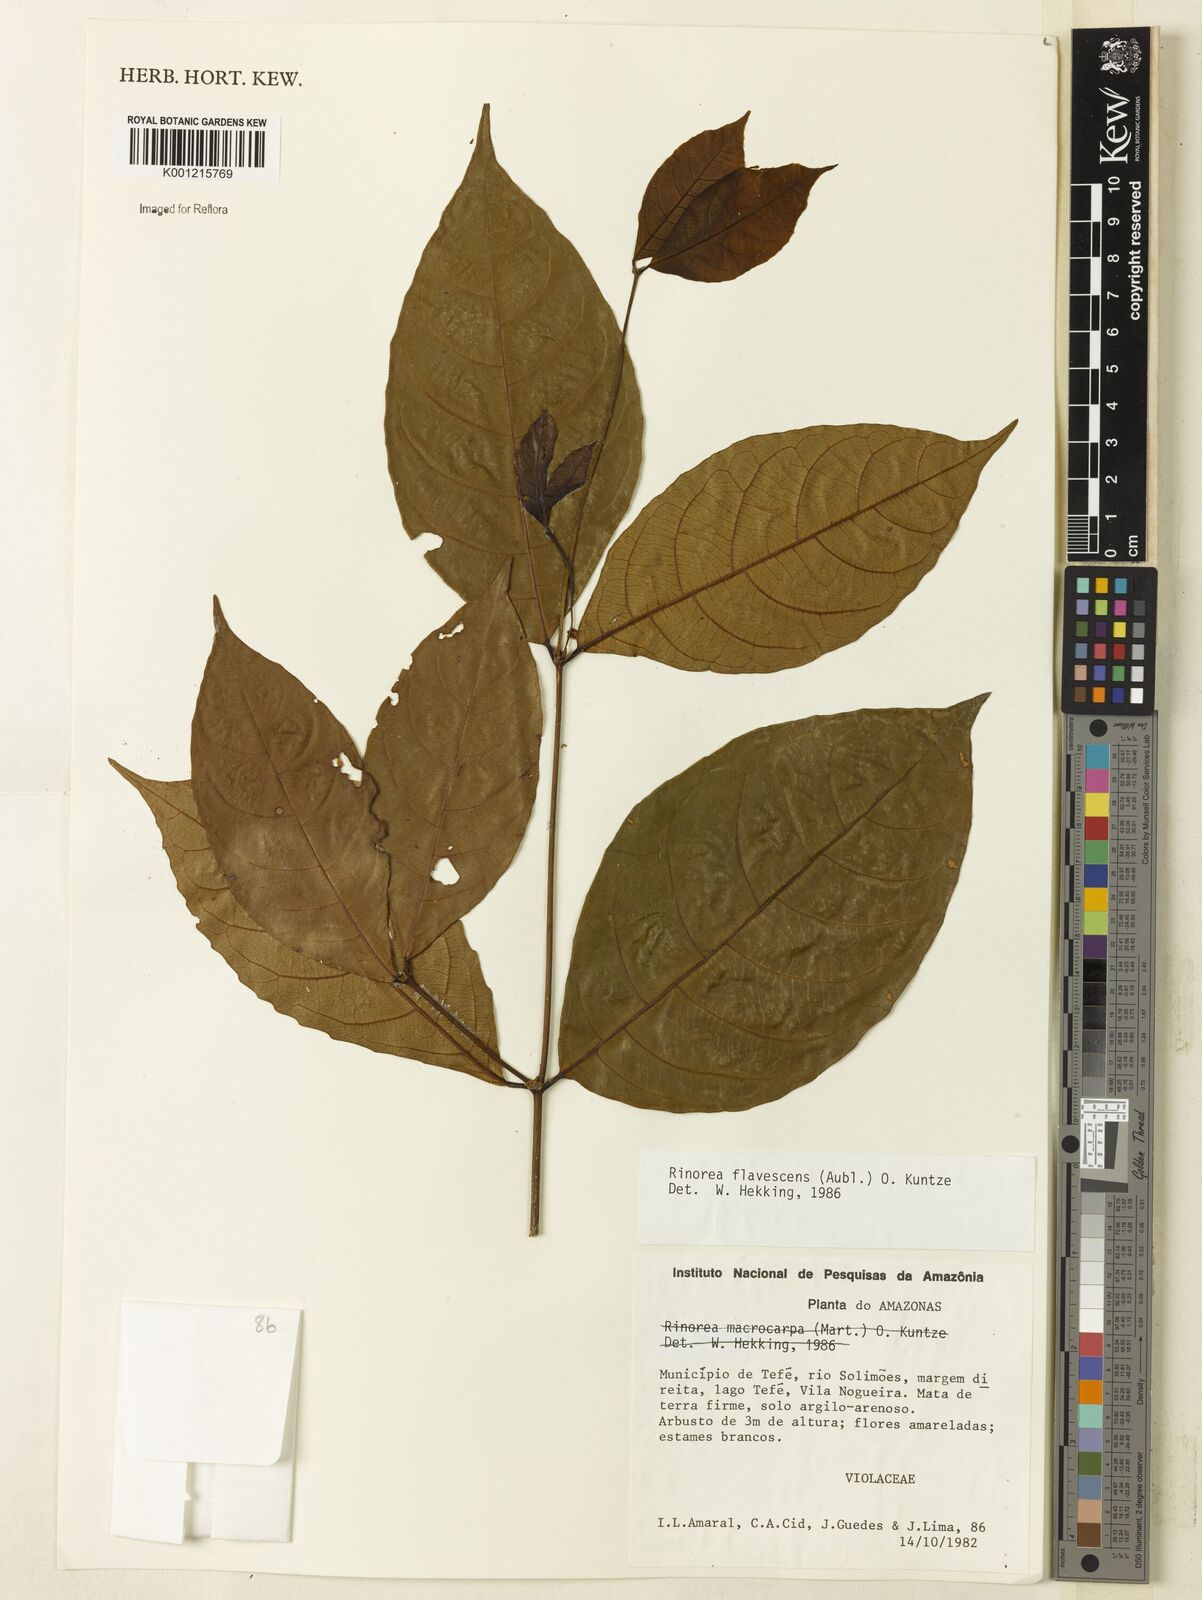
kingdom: Plantae
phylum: Tracheophyta
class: Magnoliopsida
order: Malpighiales
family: Violaceae
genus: Rinorea
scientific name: Rinorea flavescens
